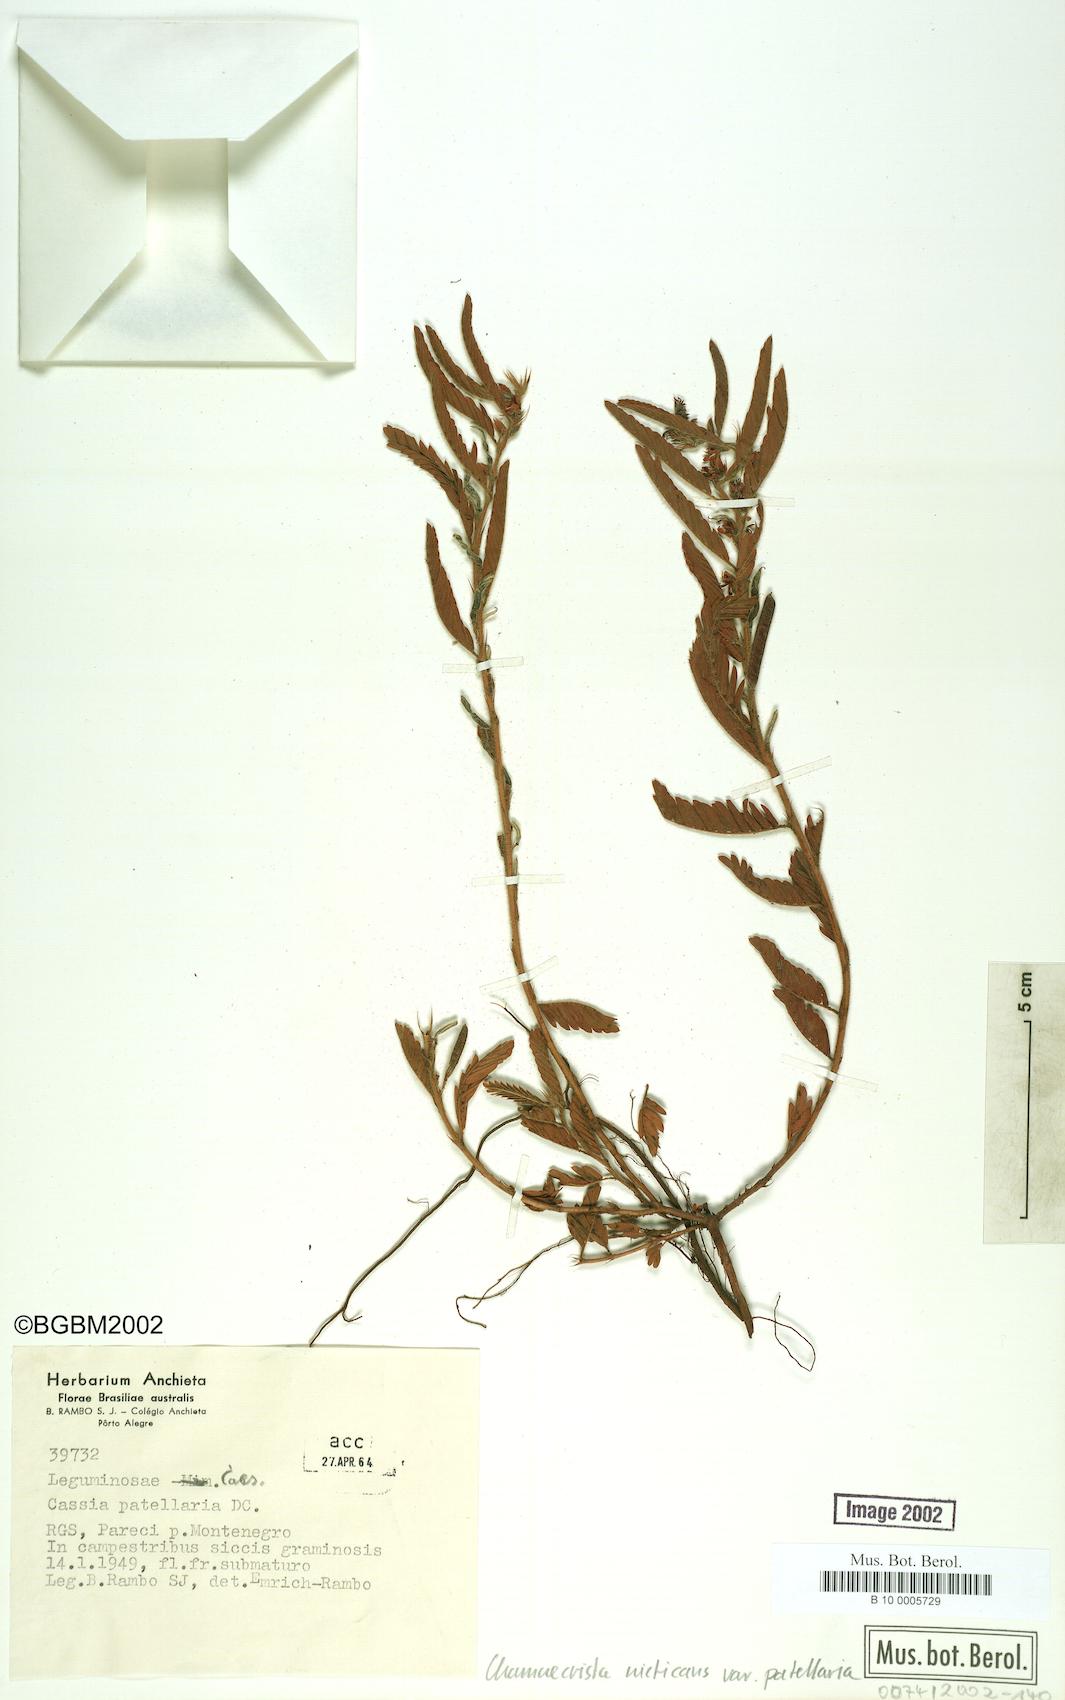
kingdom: Plantae
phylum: Tracheophyta
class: Magnoliopsida
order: Fabales
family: Fabaceae
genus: Chamaecrista
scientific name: Chamaecrista nictitans
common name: Sensitive cassia
